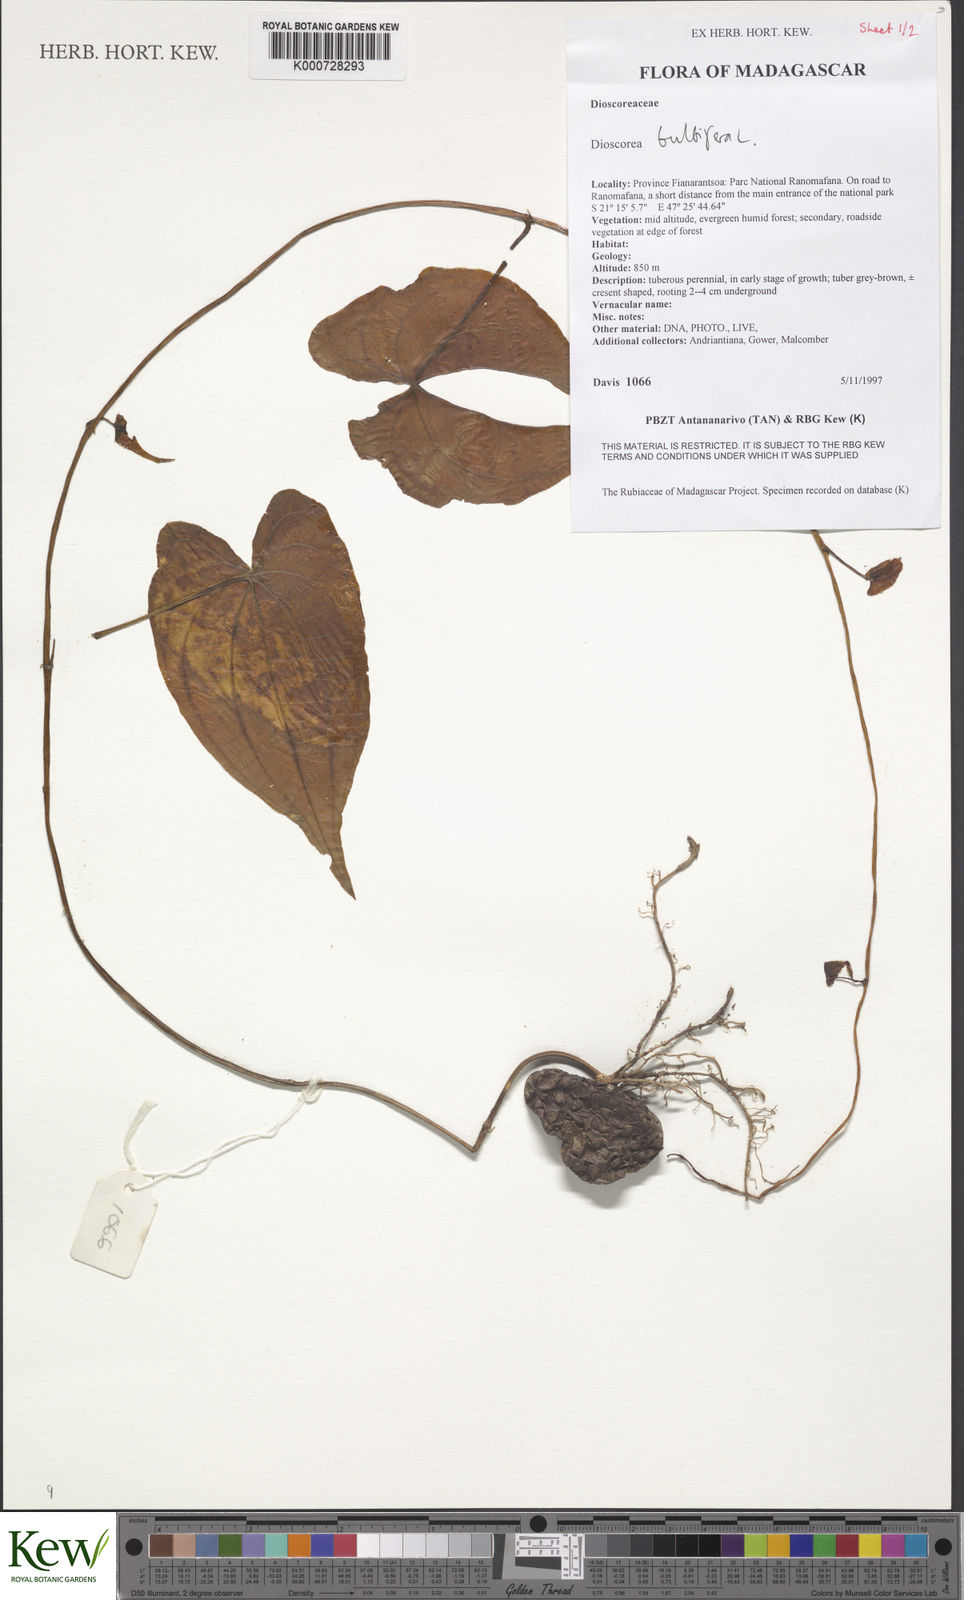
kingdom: Plantae
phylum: Tracheophyta
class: Liliopsida
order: Dioscoreales
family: Dioscoreaceae
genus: Dioscorea
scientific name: Dioscorea bulbifera
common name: Air yam
